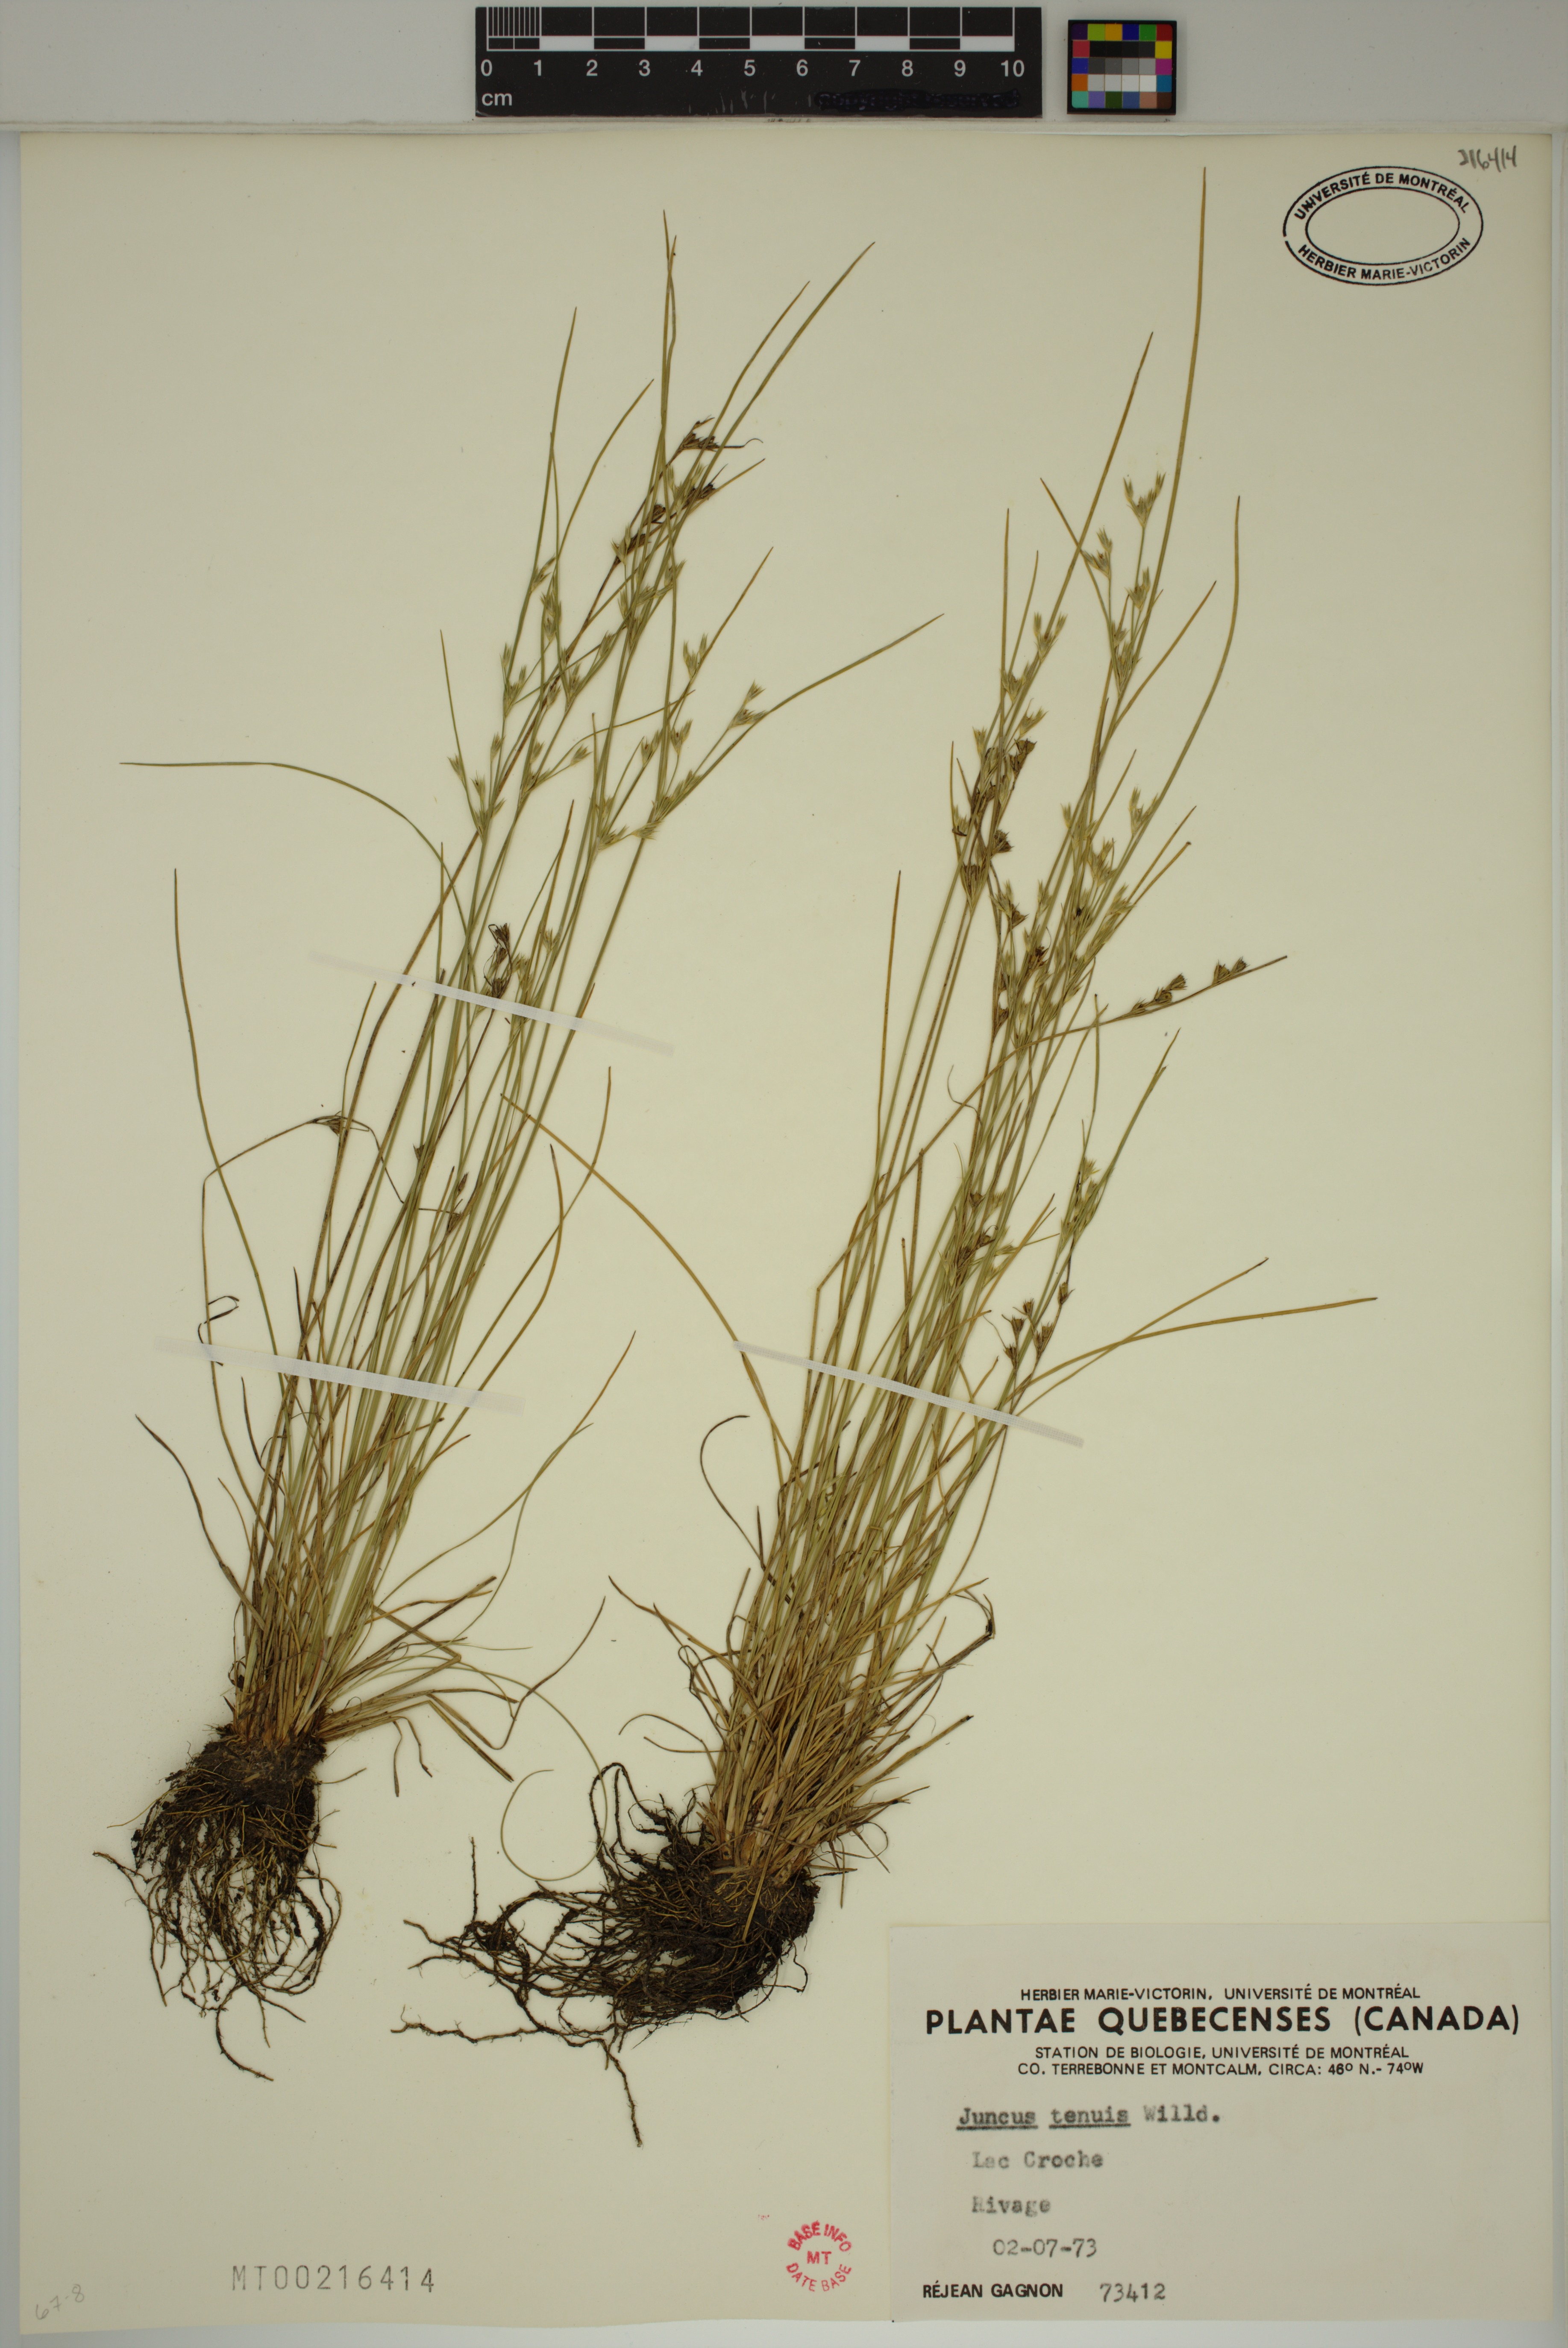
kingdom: Plantae
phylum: Tracheophyta
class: Liliopsida
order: Poales
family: Juncaceae
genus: Juncus
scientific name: Juncus tenuis
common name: Slender rush
